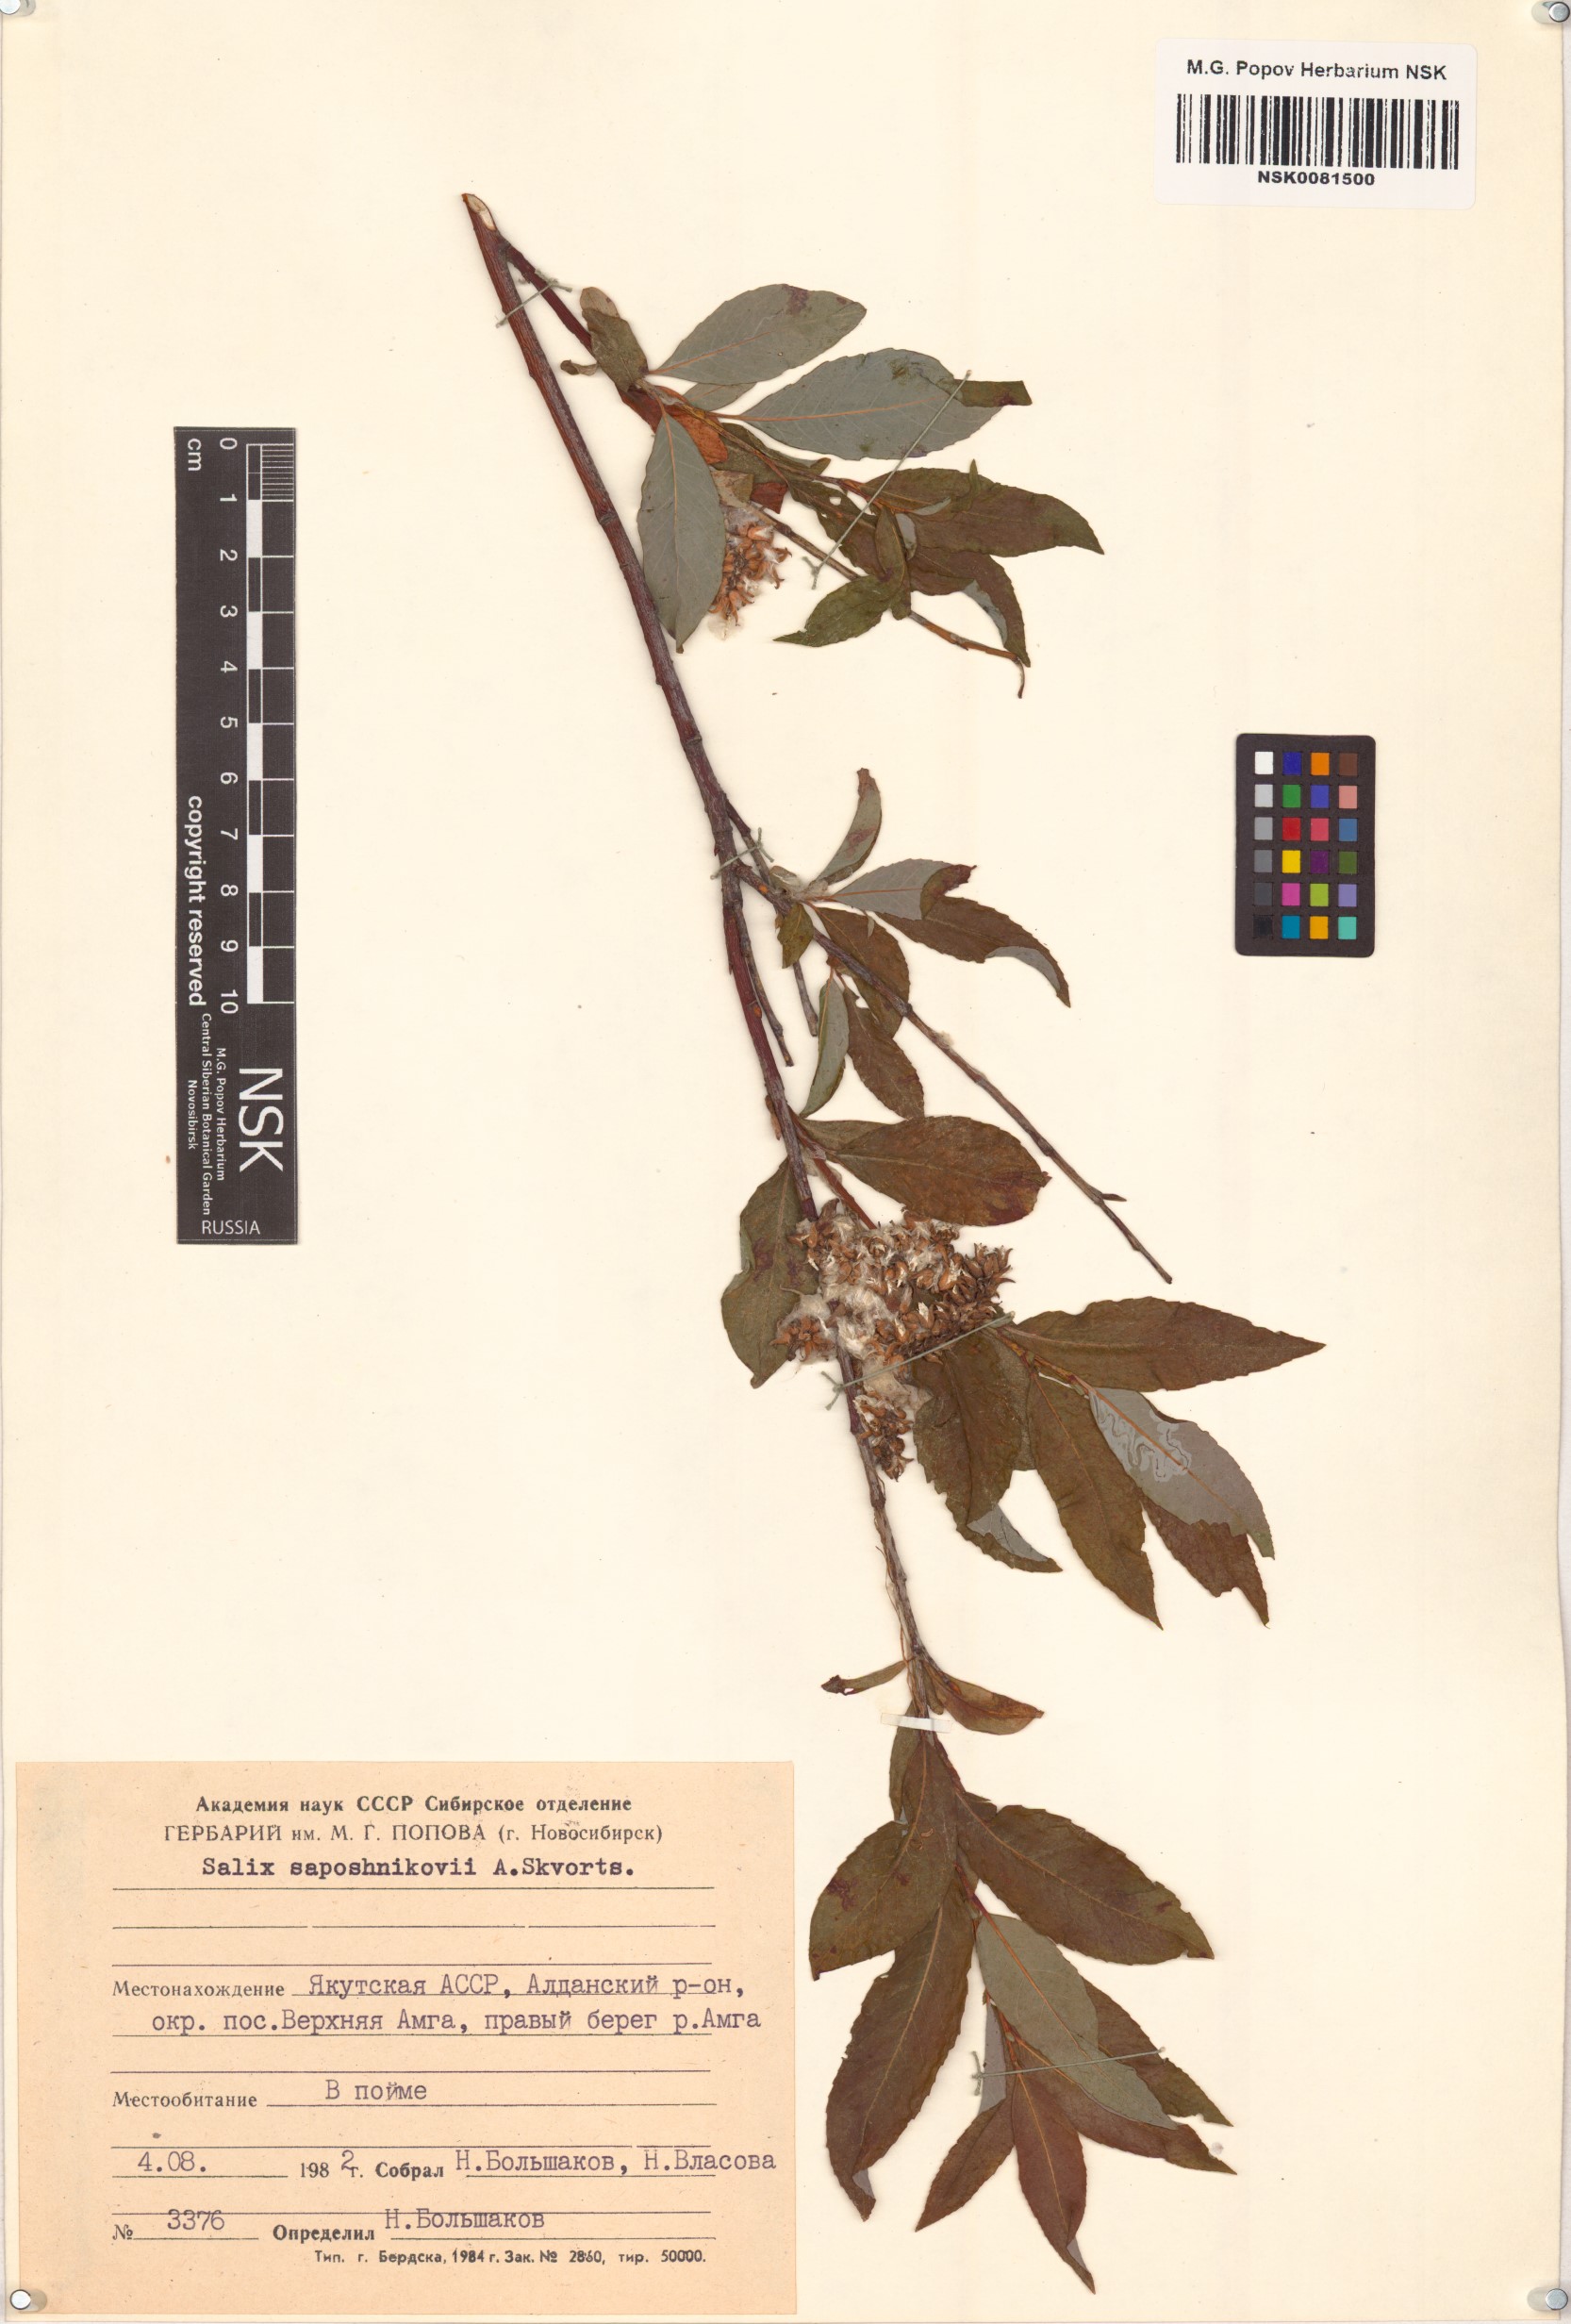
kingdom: Plantae
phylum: Tracheophyta
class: Magnoliopsida
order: Malpighiales
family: Salicaceae
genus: Salix
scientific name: Salix saposhnikovii
